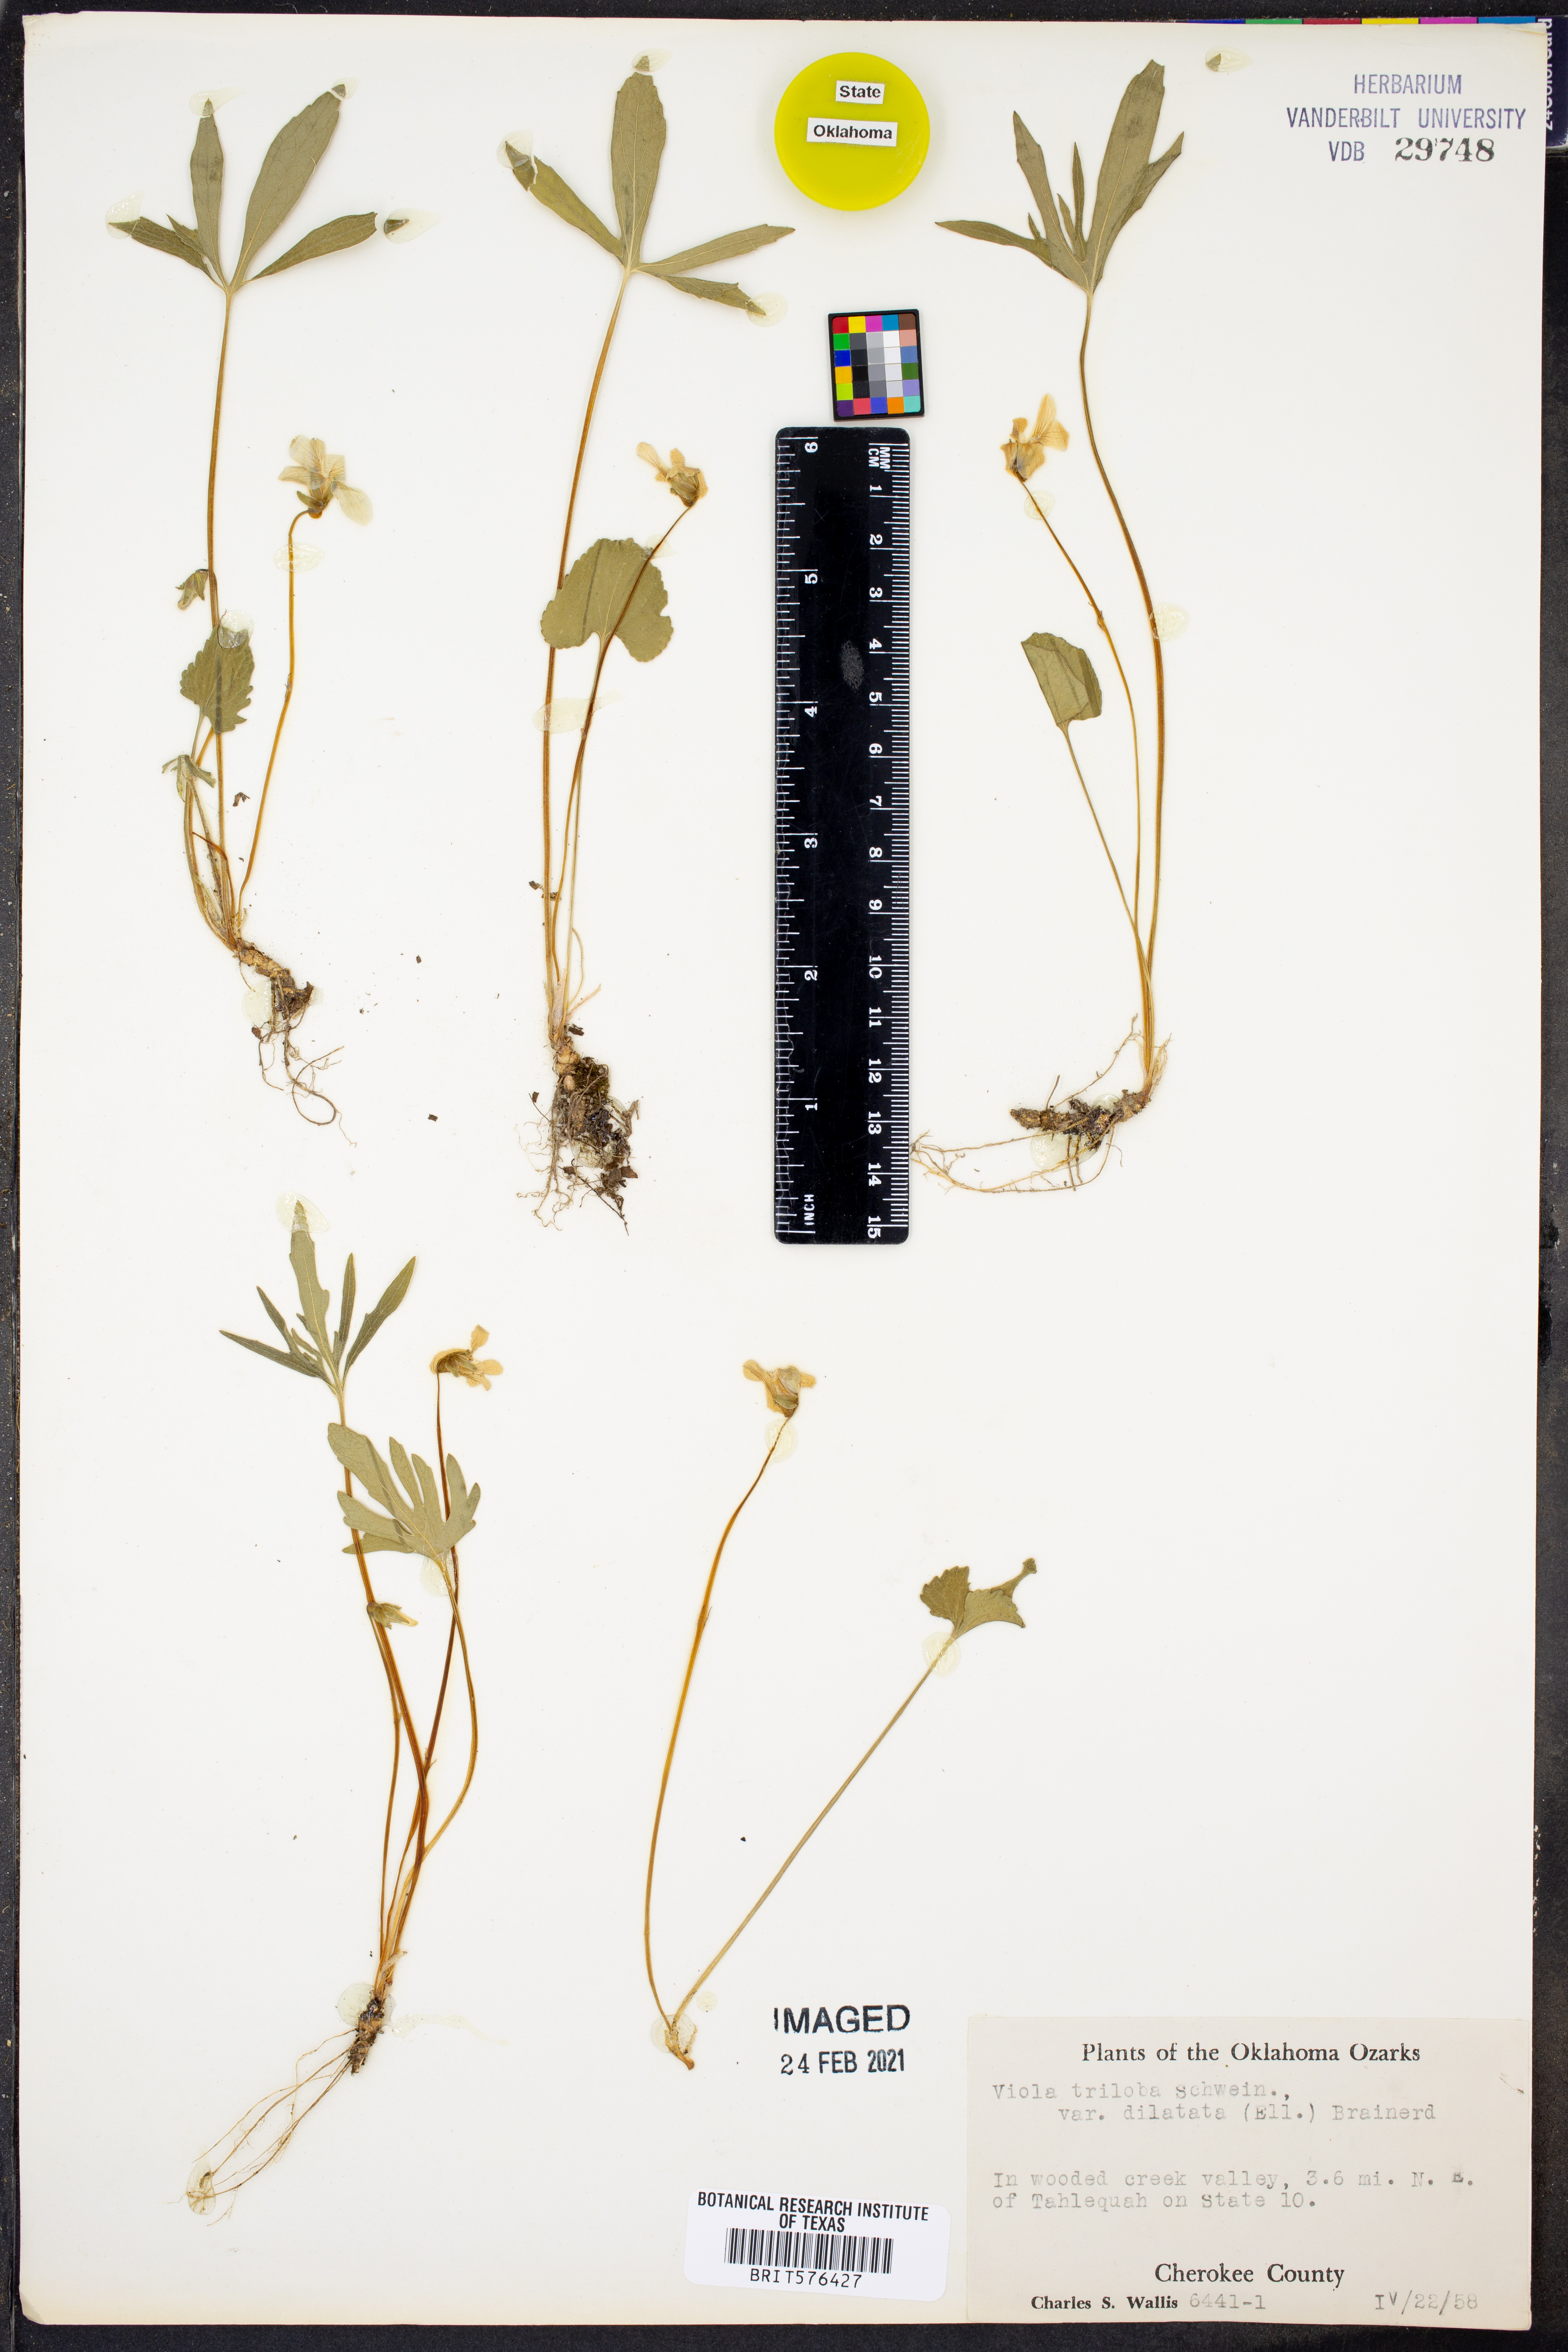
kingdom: Plantae
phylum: Tracheophyta
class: Magnoliopsida
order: Malpighiales
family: Violaceae
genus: Viola
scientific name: Viola palmata
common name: Early blue violet
